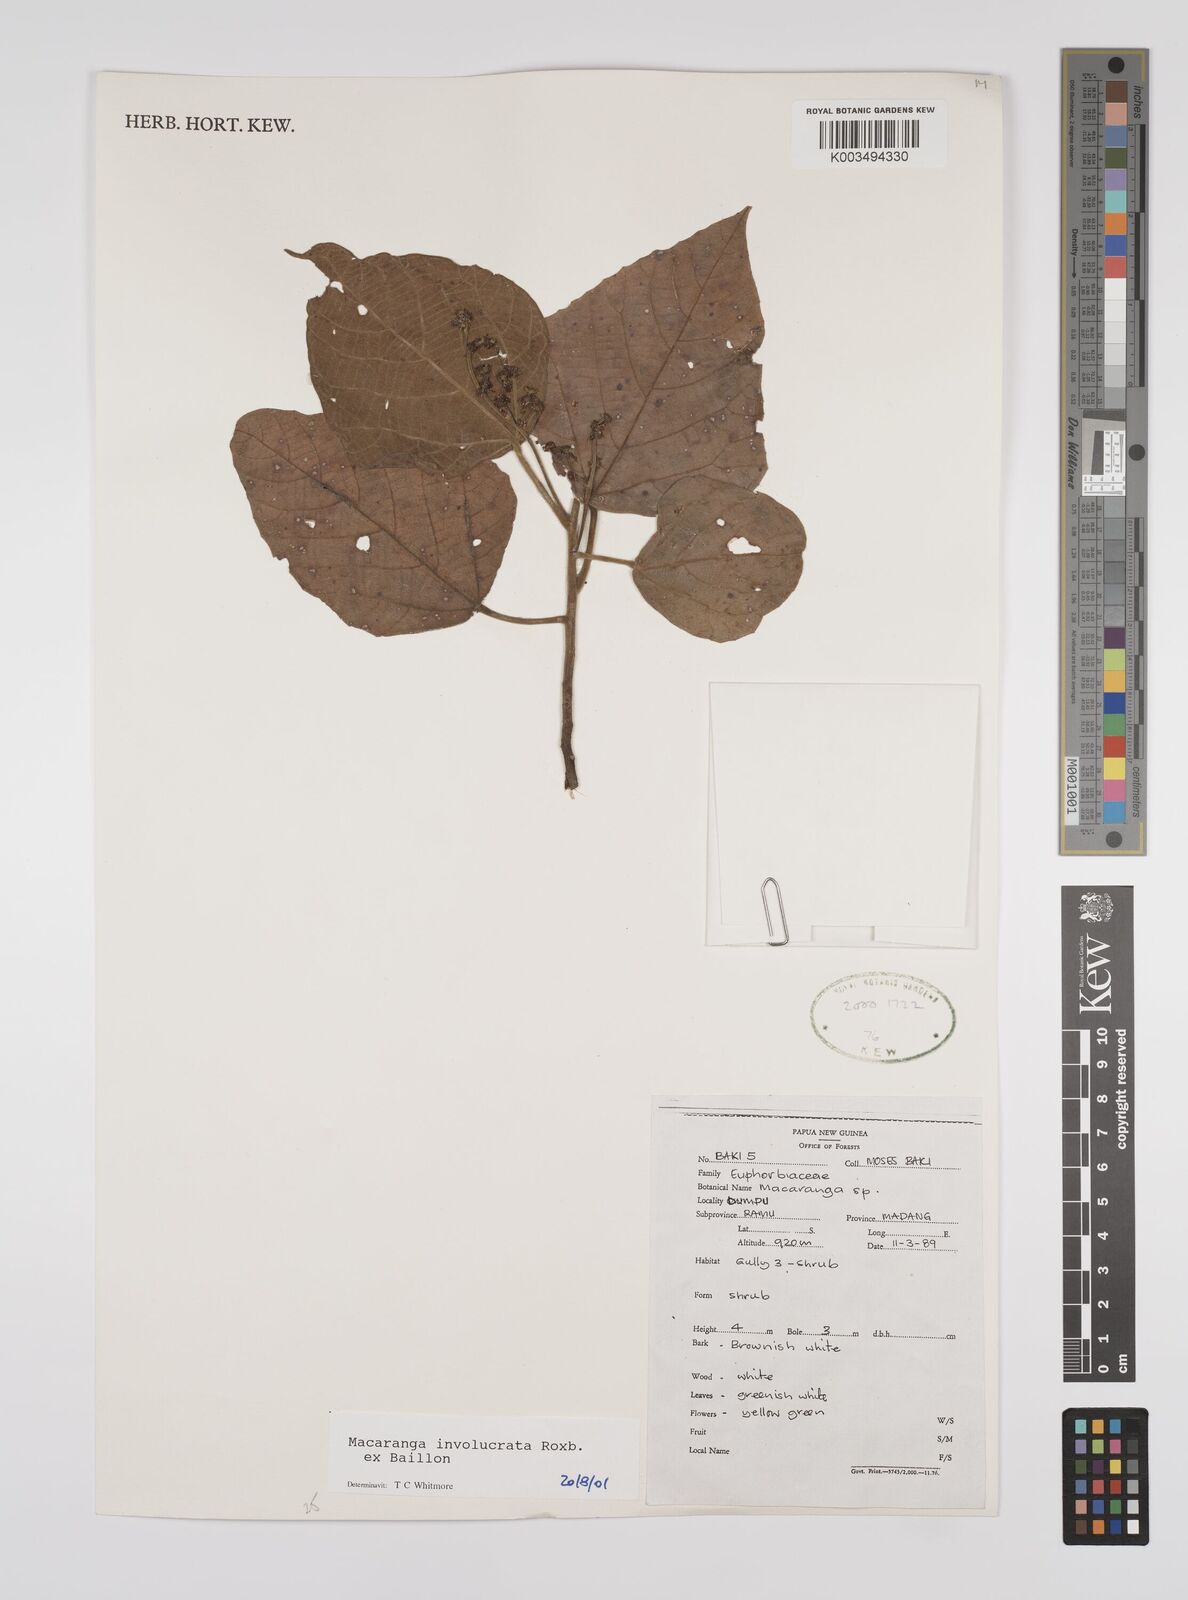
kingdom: Plantae
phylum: Tracheophyta
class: Magnoliopsida
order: Malpighiales
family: Euphorbiaceae
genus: Macaranga
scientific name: Macaranga involucrata
